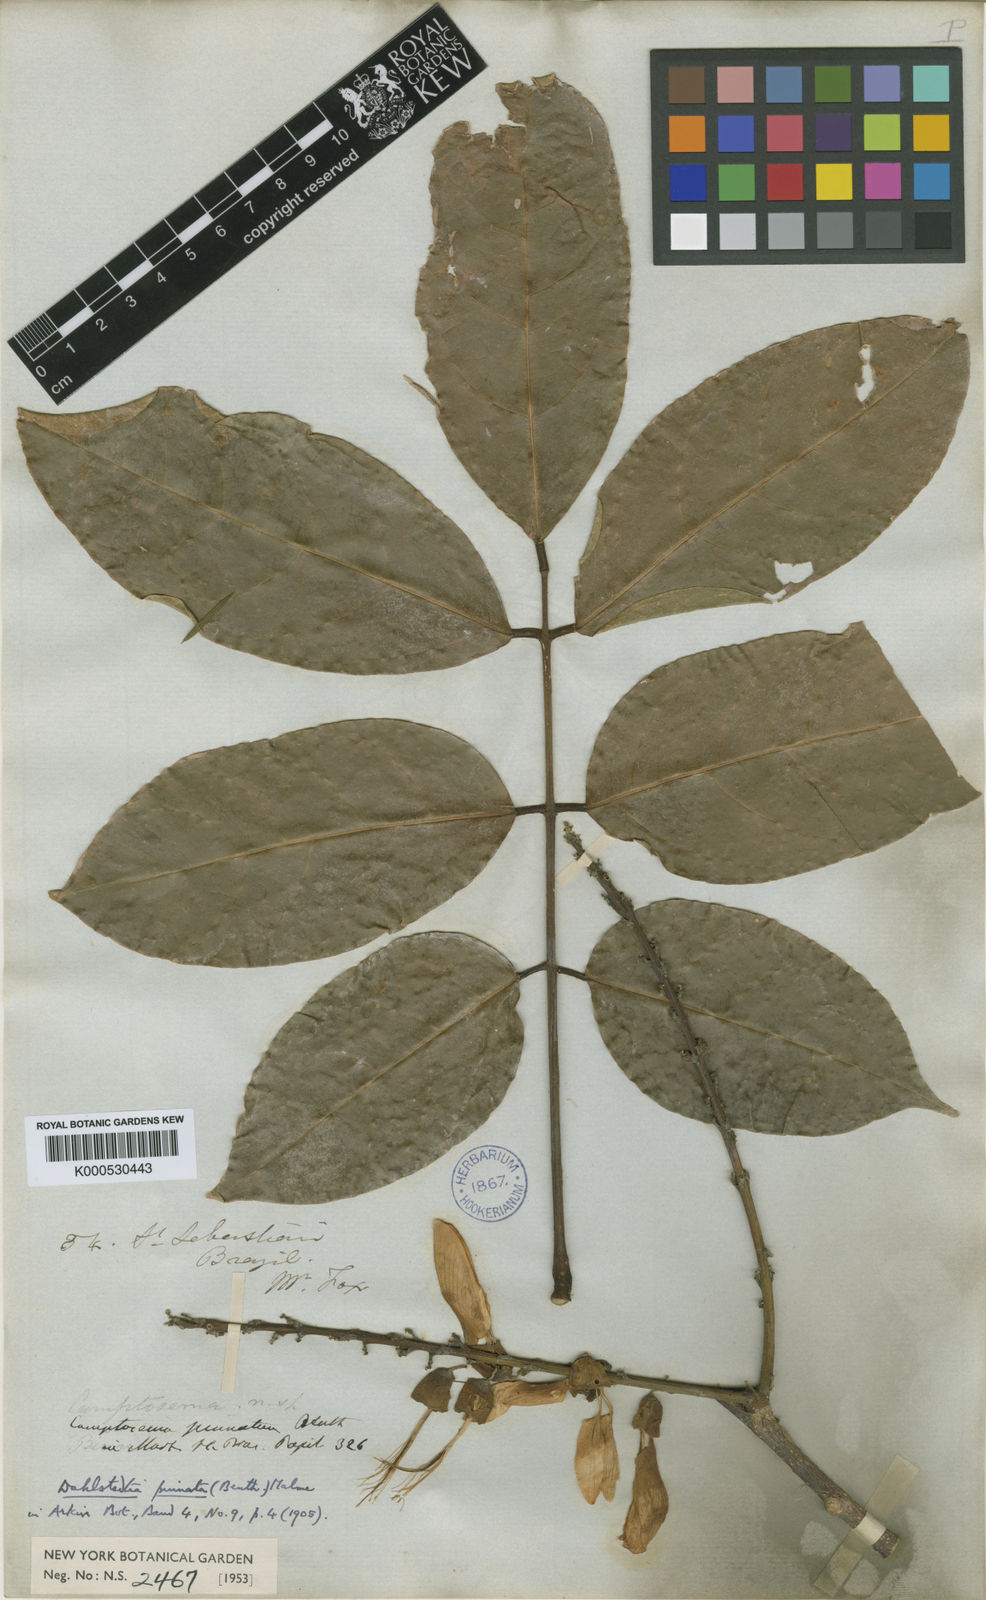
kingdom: Plantae
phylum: Tracheophyta
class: Magnoliopsida
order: Fabales
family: Fabaceae
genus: Dahlstedtia
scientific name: Dahlstedtia pinnata
